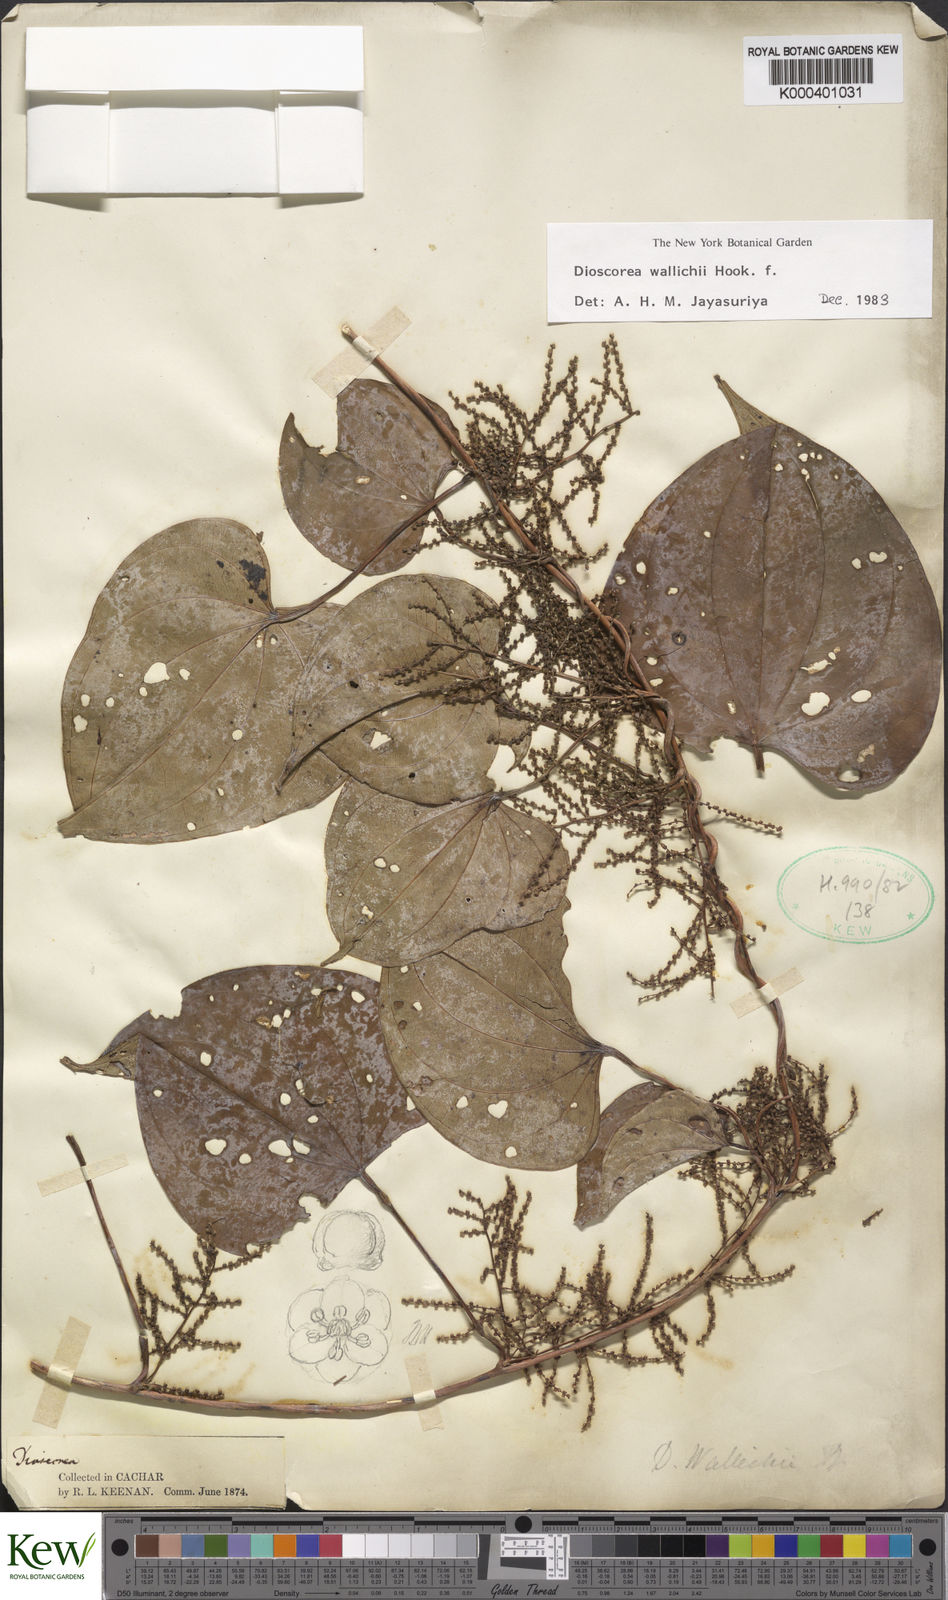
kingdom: Plantae
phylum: Tracheophyta
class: Liliopsida
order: Dioscoreales
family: Dioscoreaceae
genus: Dioscorea
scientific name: Dioscorea wallichii
